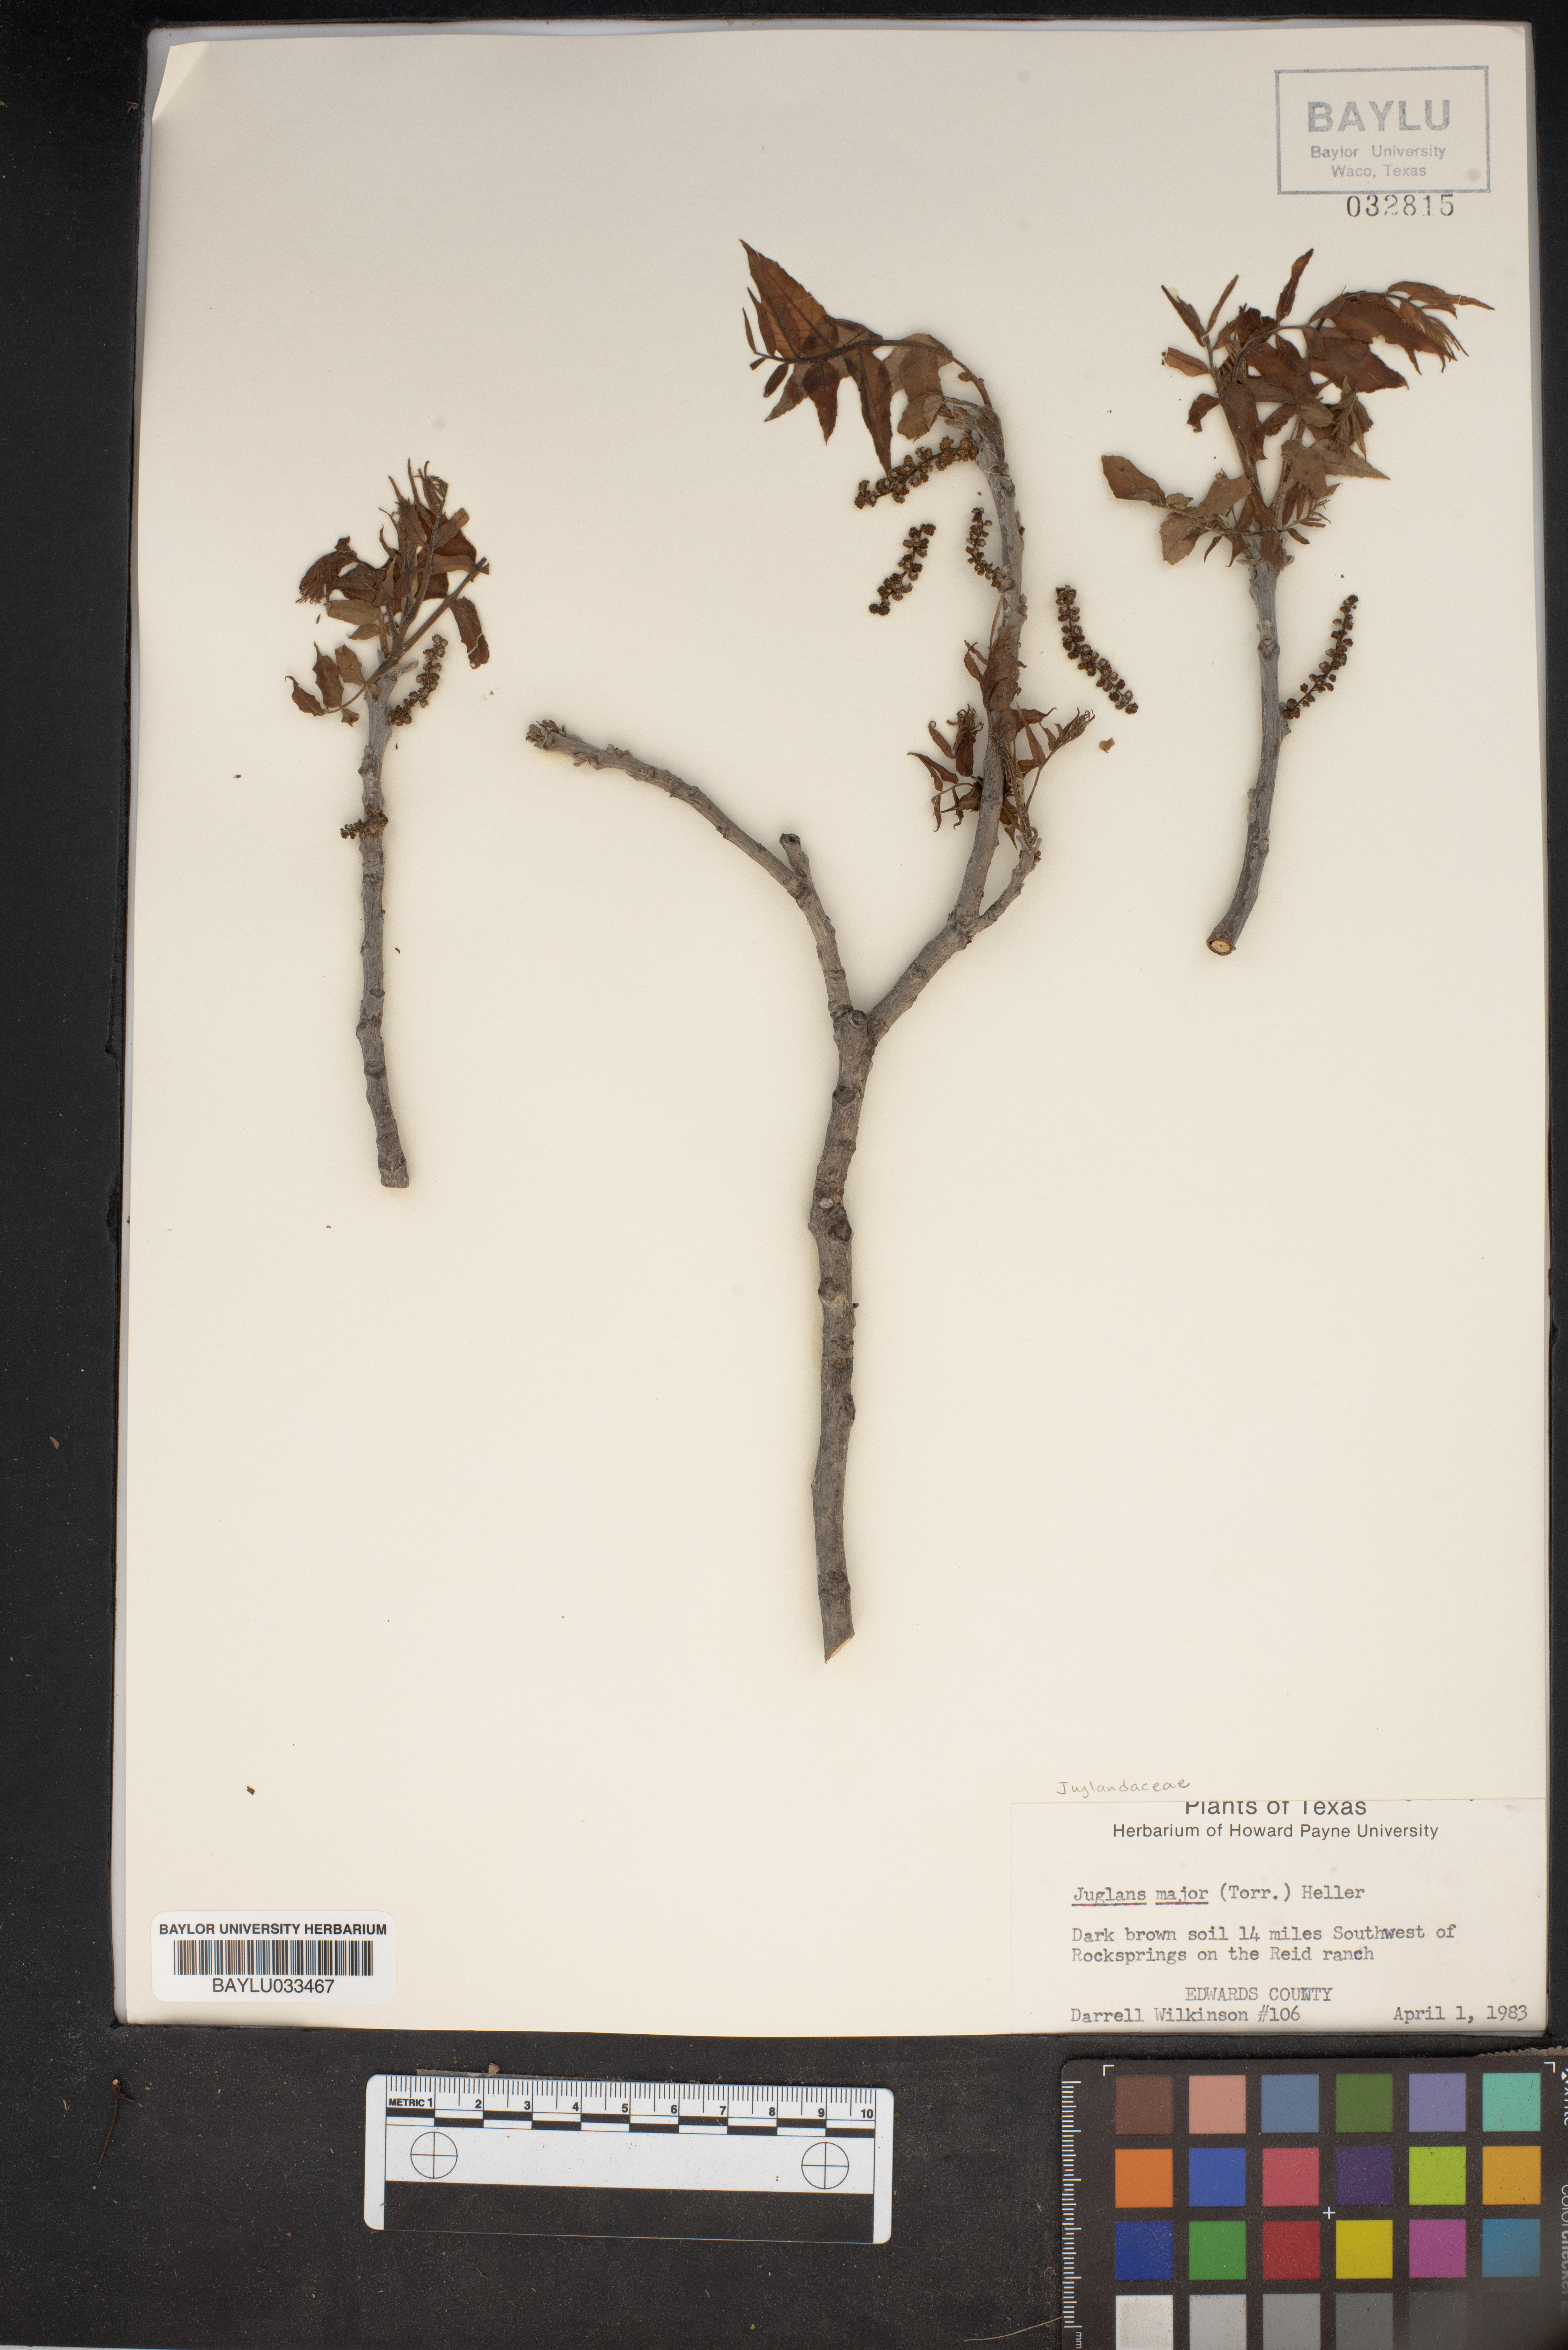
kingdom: Plantae
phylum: Tracheophyta
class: Magnoliopsida
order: Fagales
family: Juglandaceae
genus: Juglans
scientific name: Juglans major
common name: Arizona walnut
